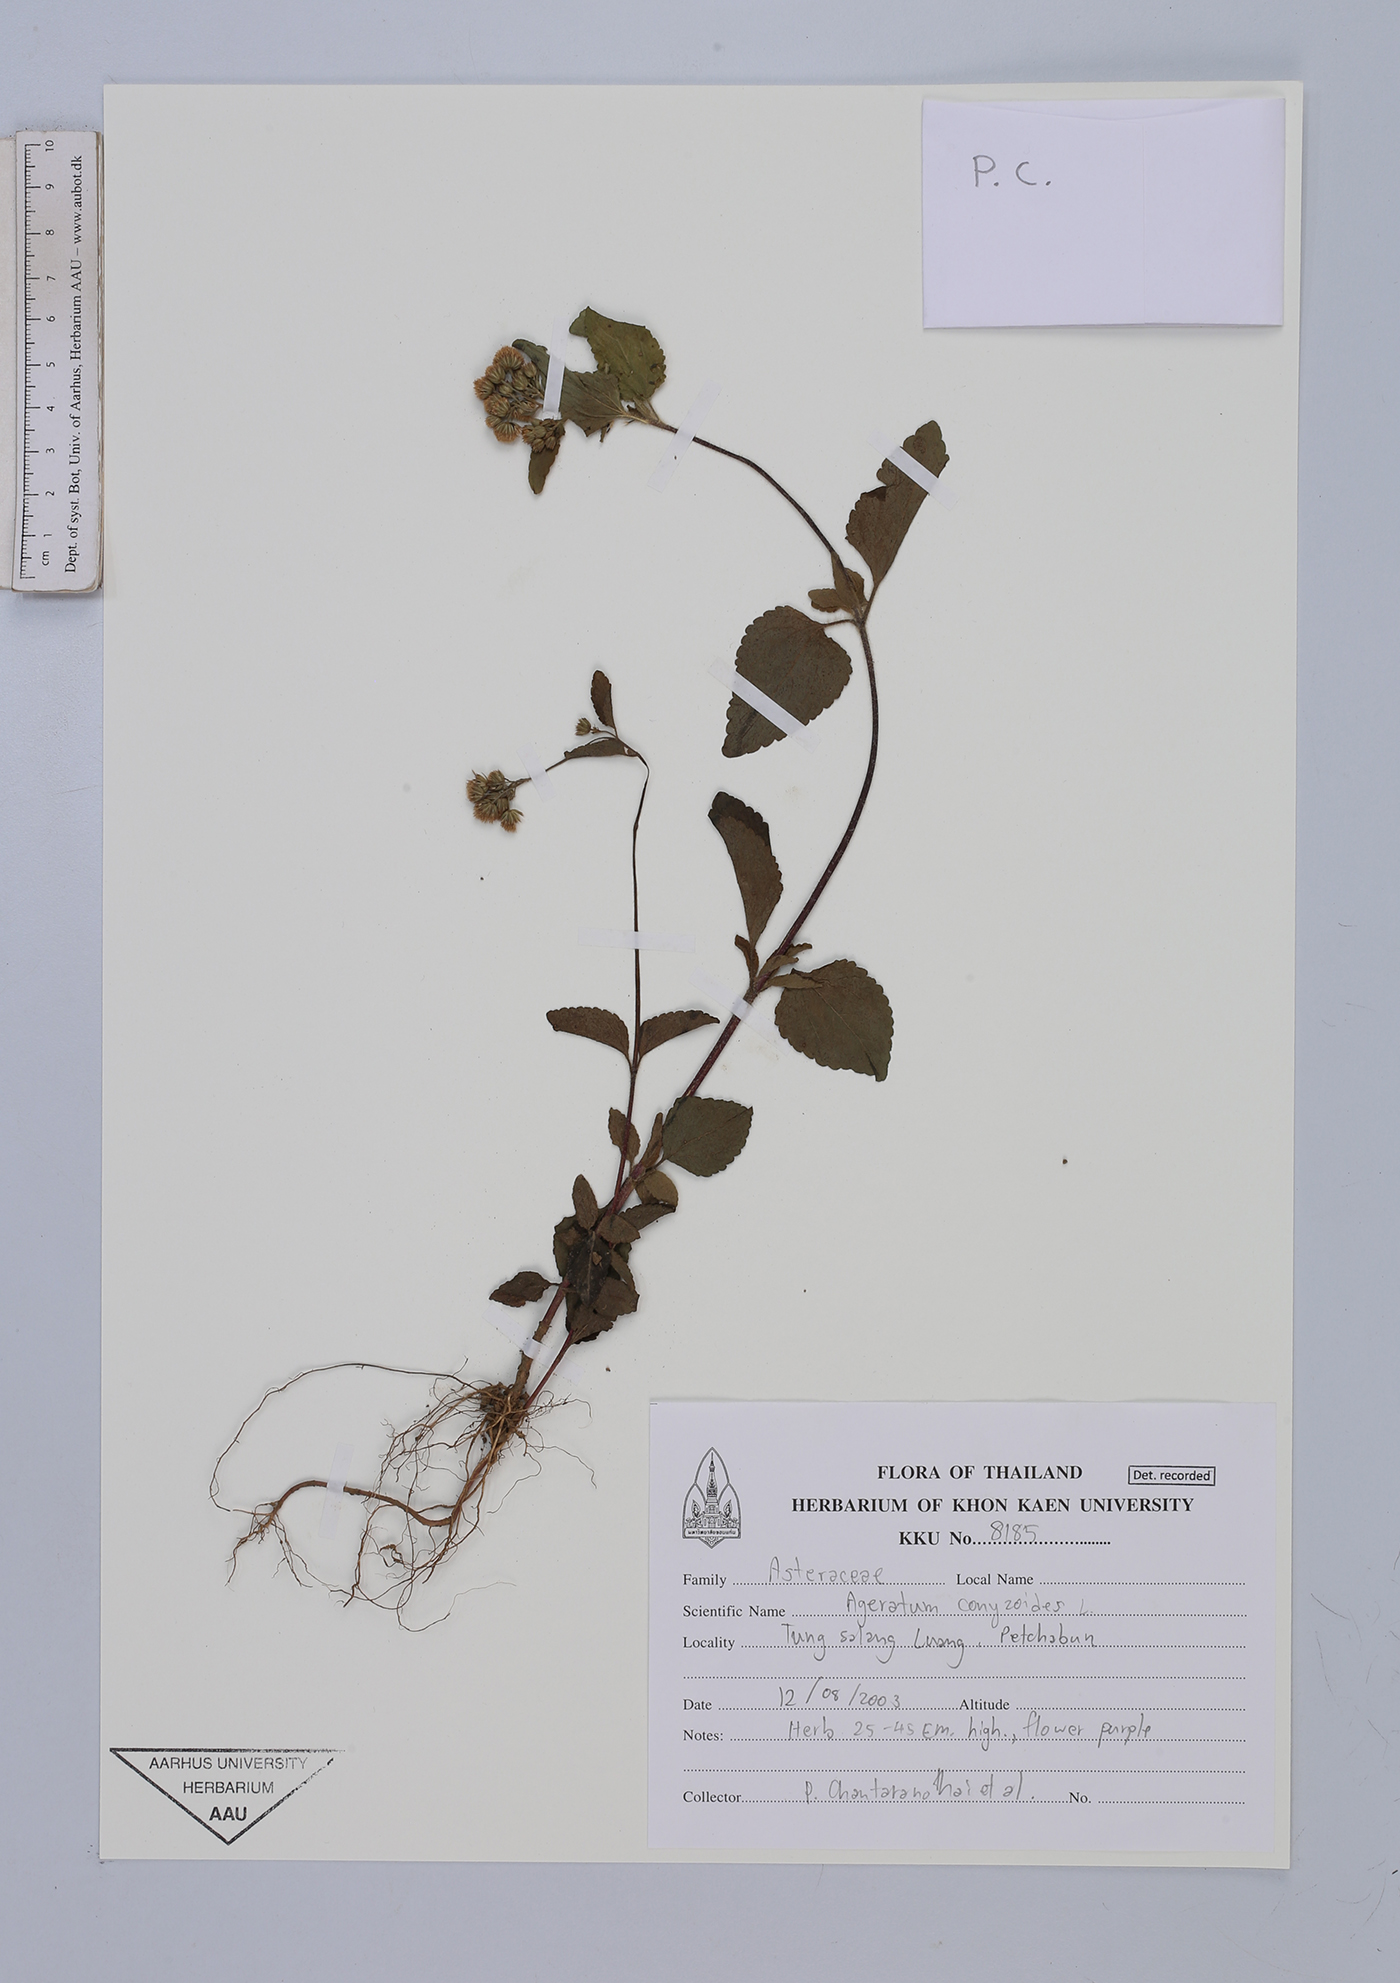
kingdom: Plantae
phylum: Tracheophyta
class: Magnoliopsida
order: Asterales
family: Asteraceae
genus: Ageratum
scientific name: Ageratum conyzoides
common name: Tropical whiteweed
